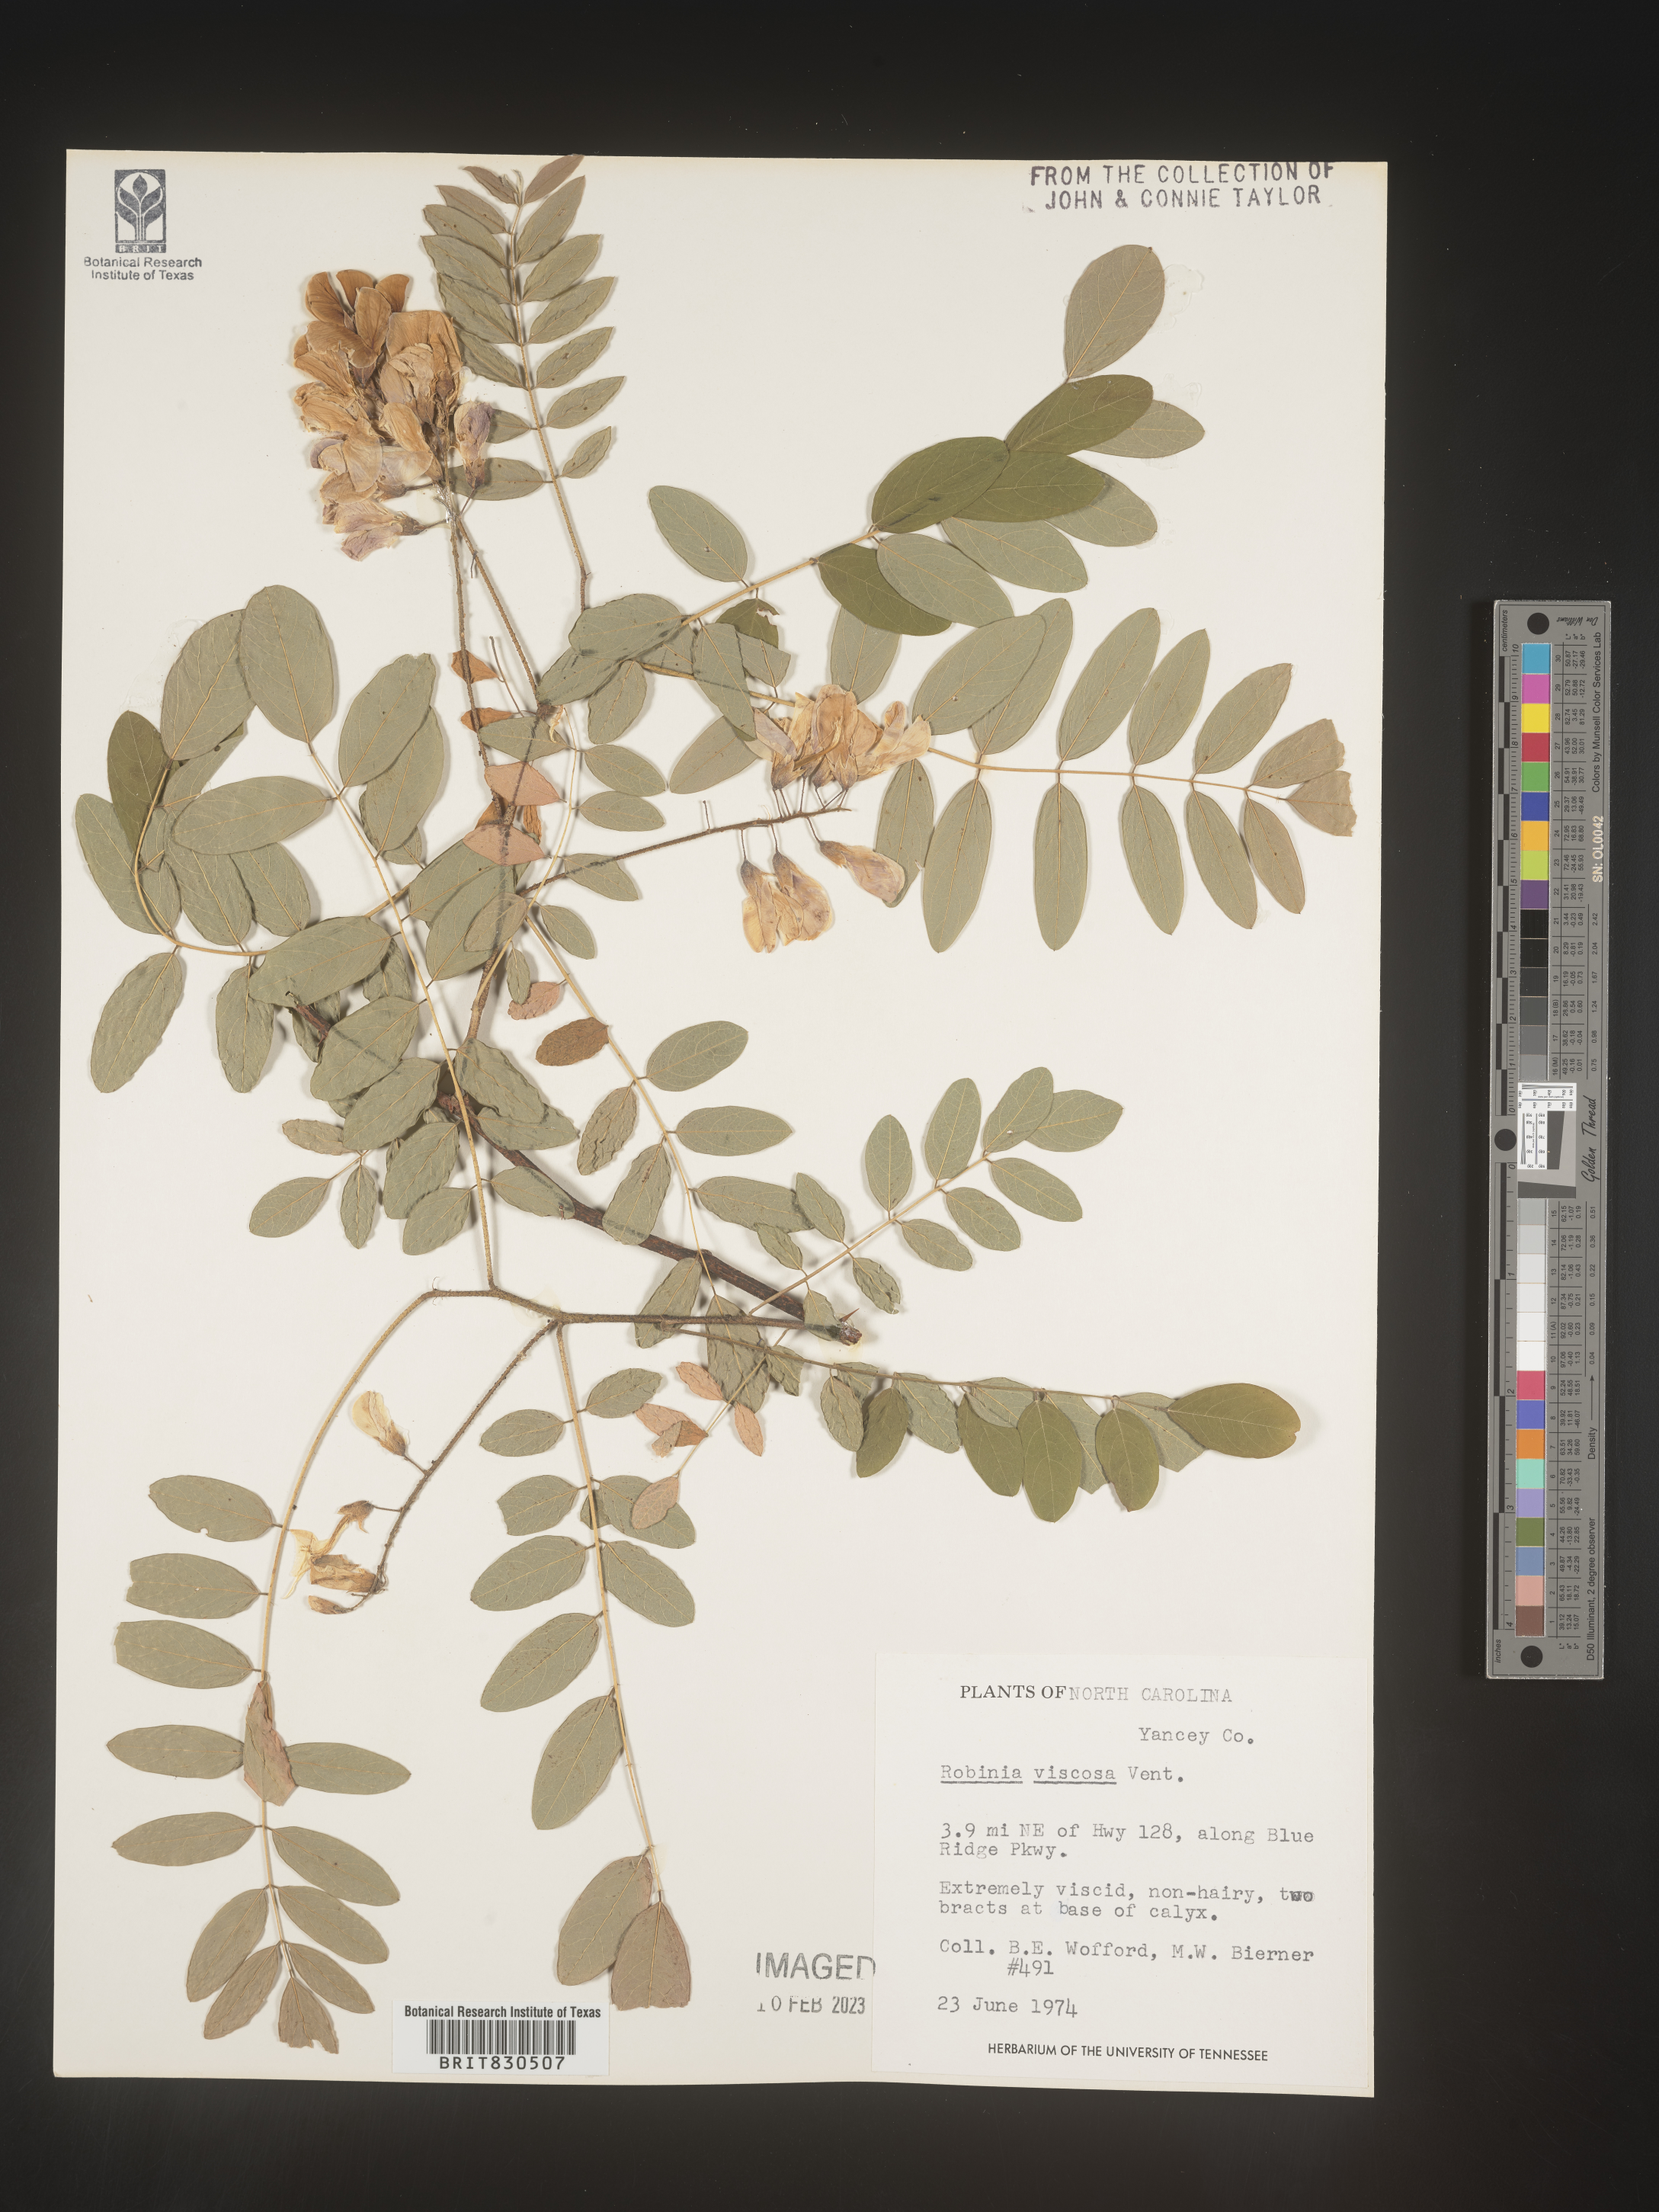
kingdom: Plantae
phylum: Tracheophyta
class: Magnoliopsida
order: Fabales
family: Fabaceae
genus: Robinia
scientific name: Robinia
